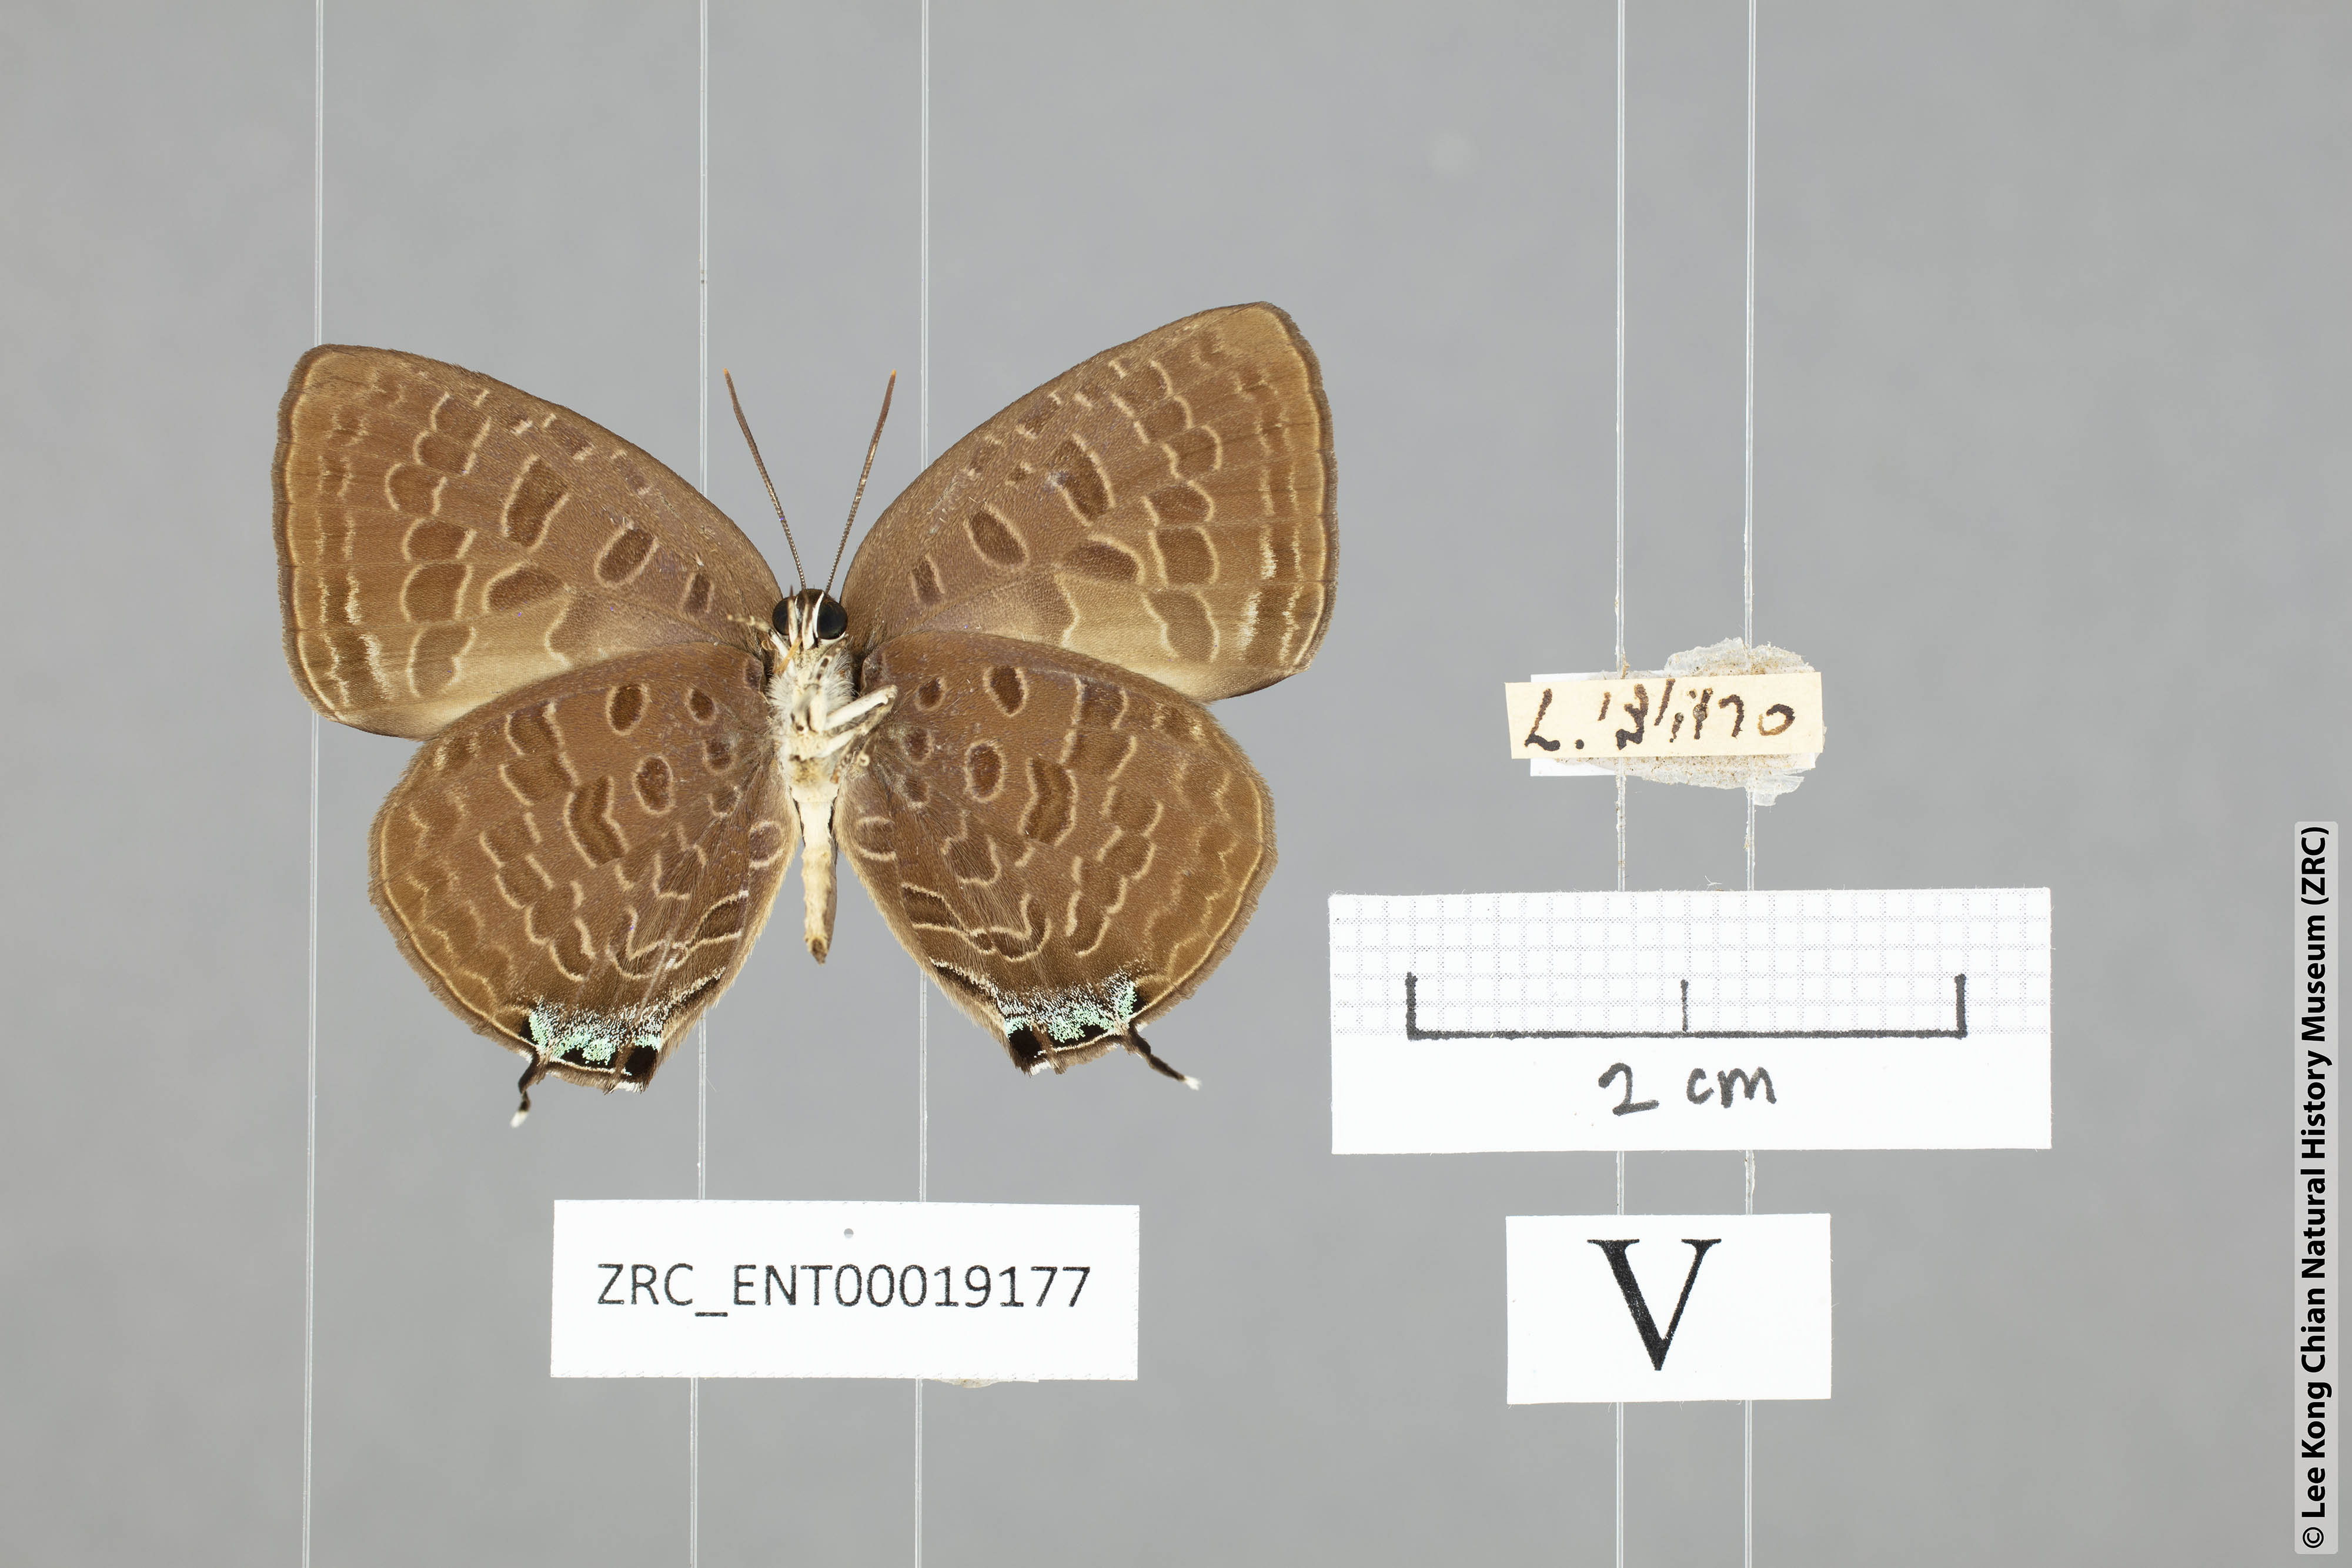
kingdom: Animalia
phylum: Arthropoda
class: Insecta
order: Lepidoptera
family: Lycaenidae
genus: Arhopala
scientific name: Arhopala ariana
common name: Pinkish-washed oakblue
